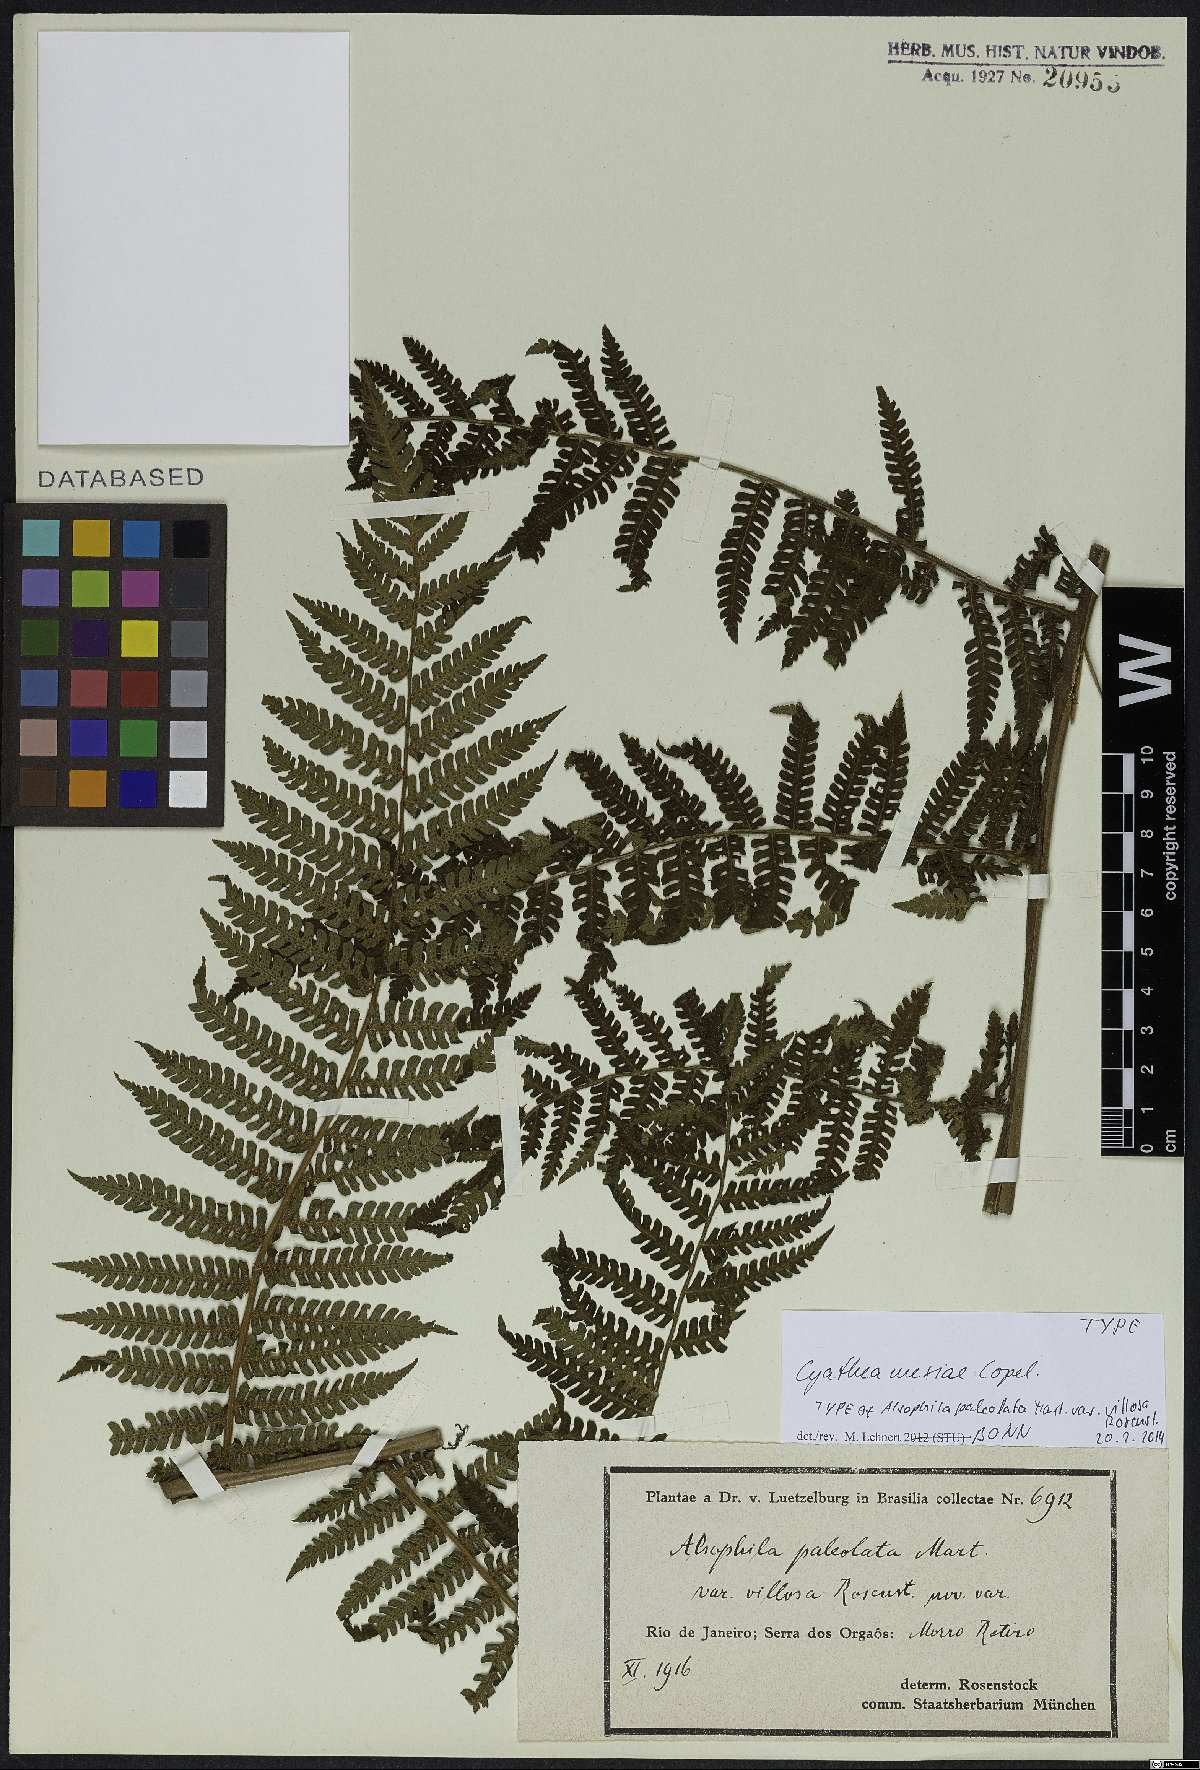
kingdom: Plantae
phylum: Tracheophyta
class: Polypodiopsida
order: Cyatheales
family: Cyatheaceae
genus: Cyathea
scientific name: Cyathea mexiae
